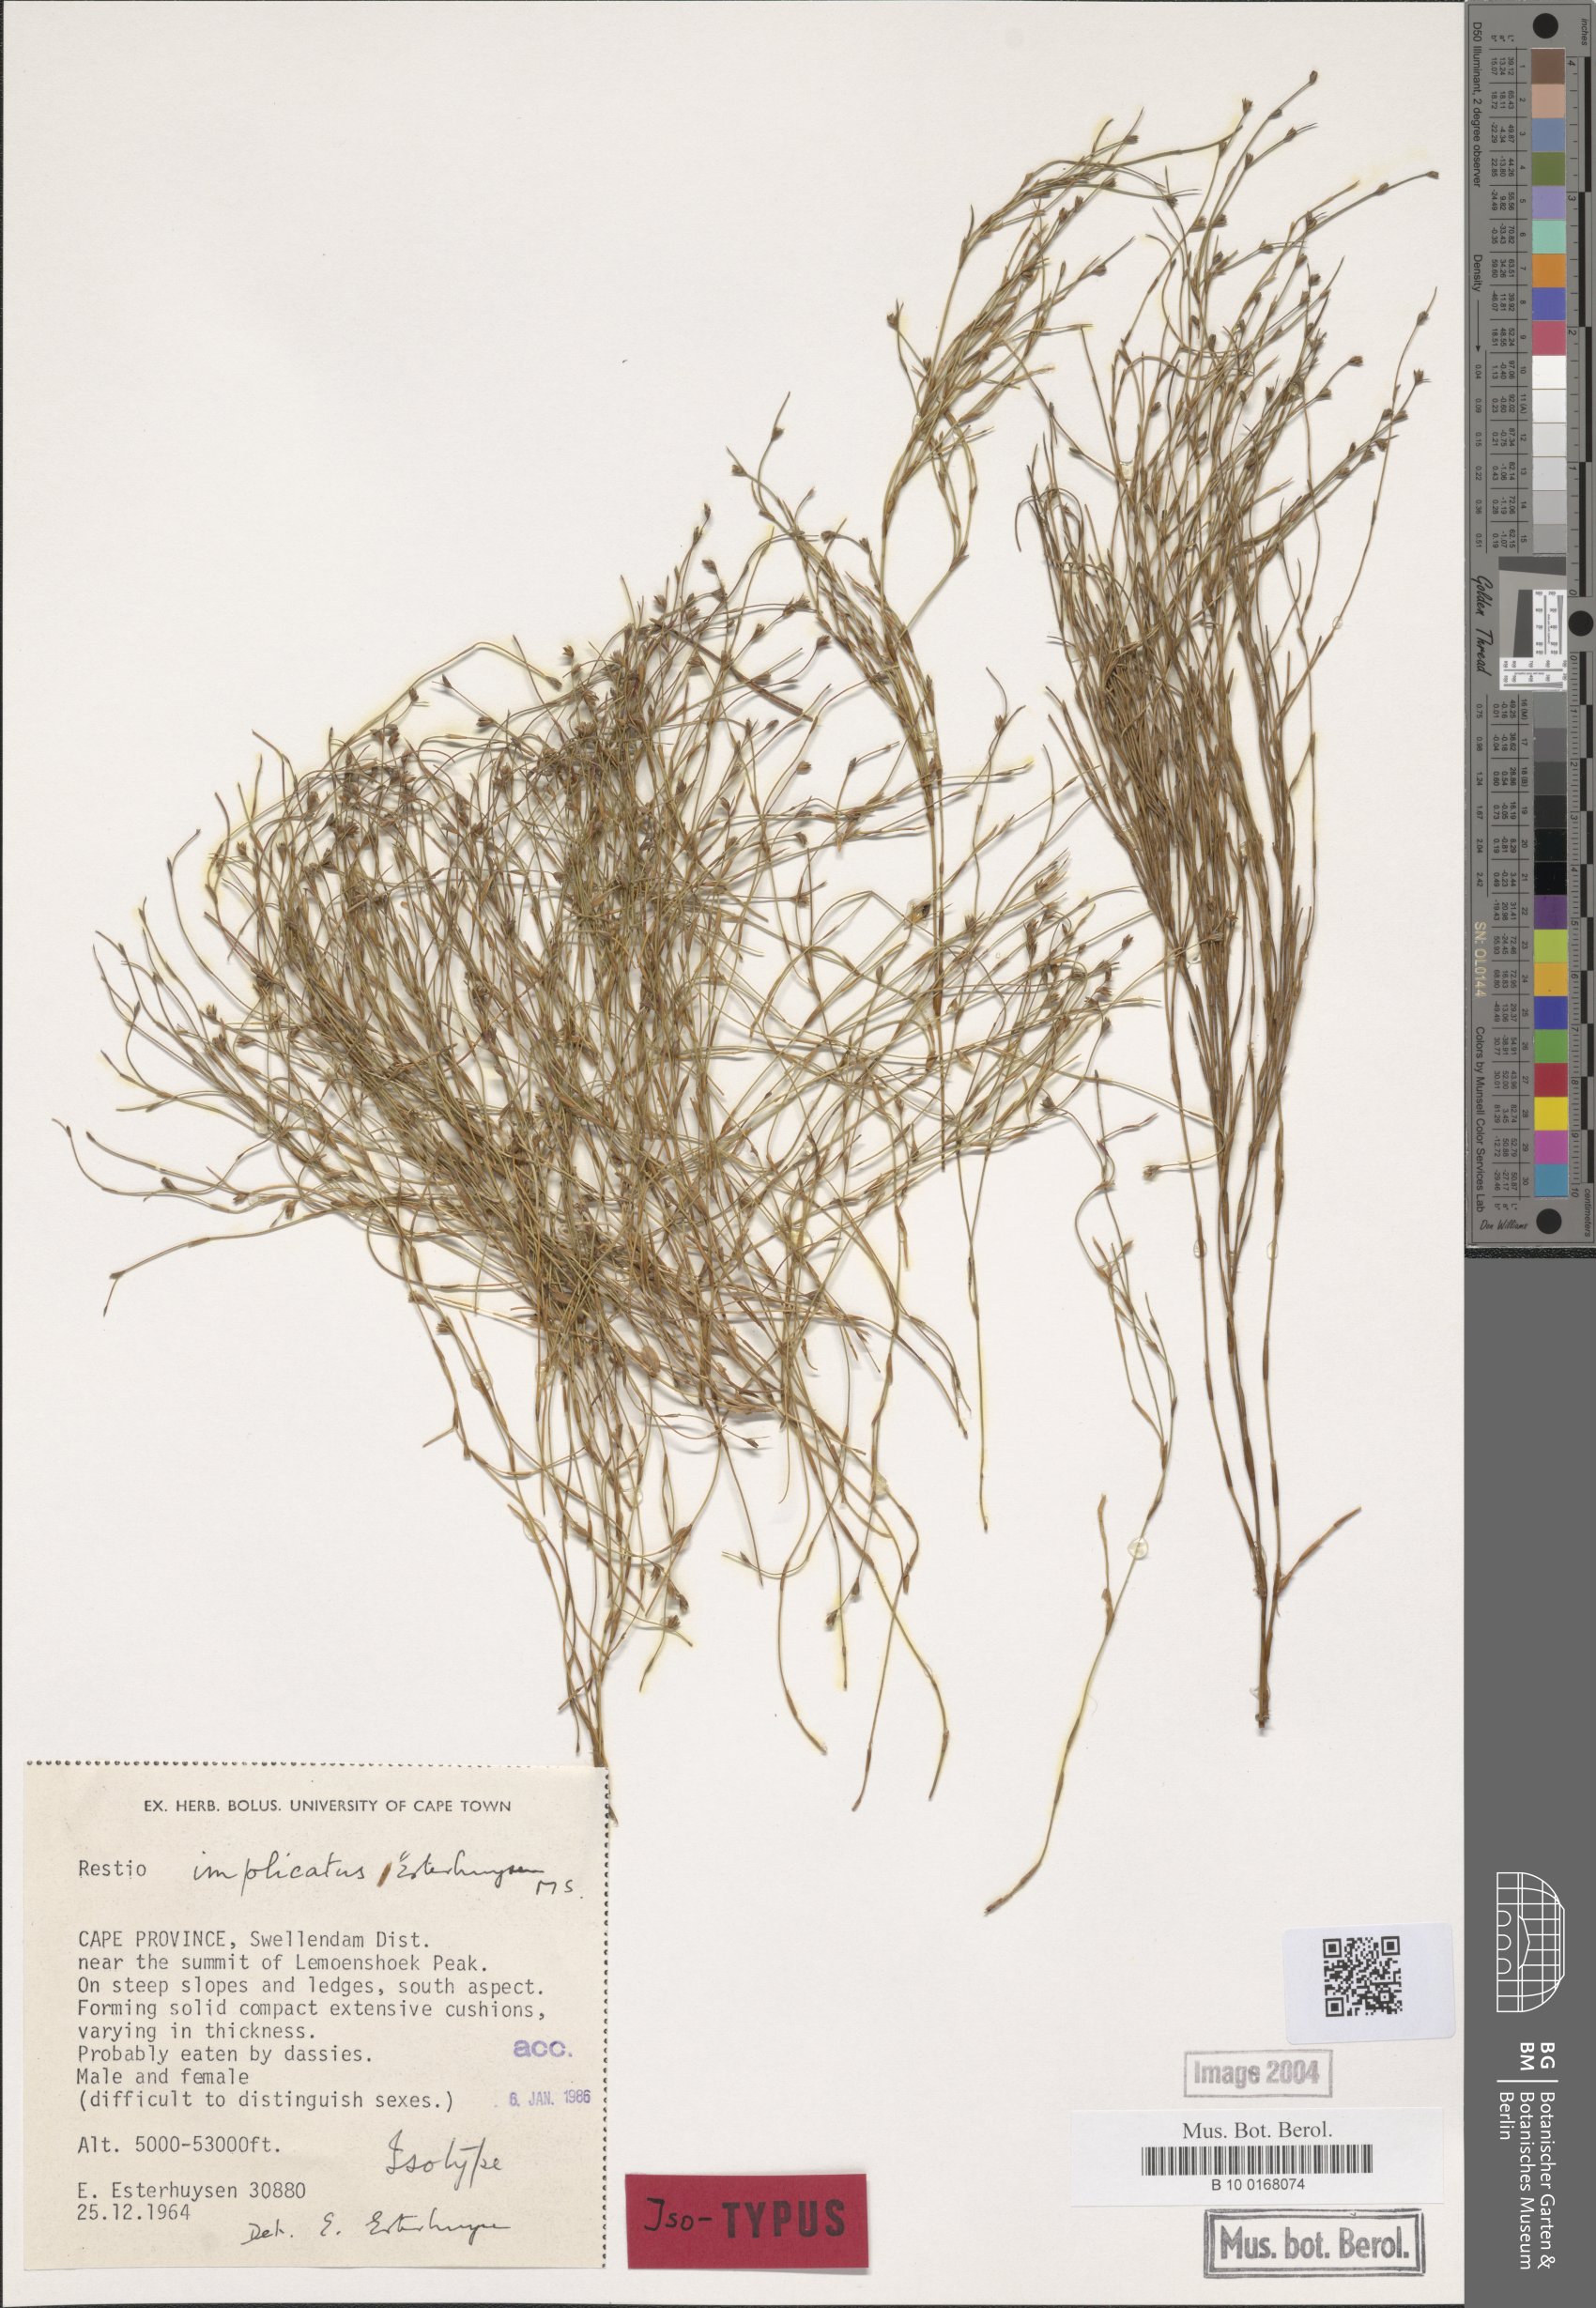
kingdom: Plantae
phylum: Tracheophyta
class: Liliopsida
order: Poales
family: Restionaceae
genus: Restio
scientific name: Restio implicatus
